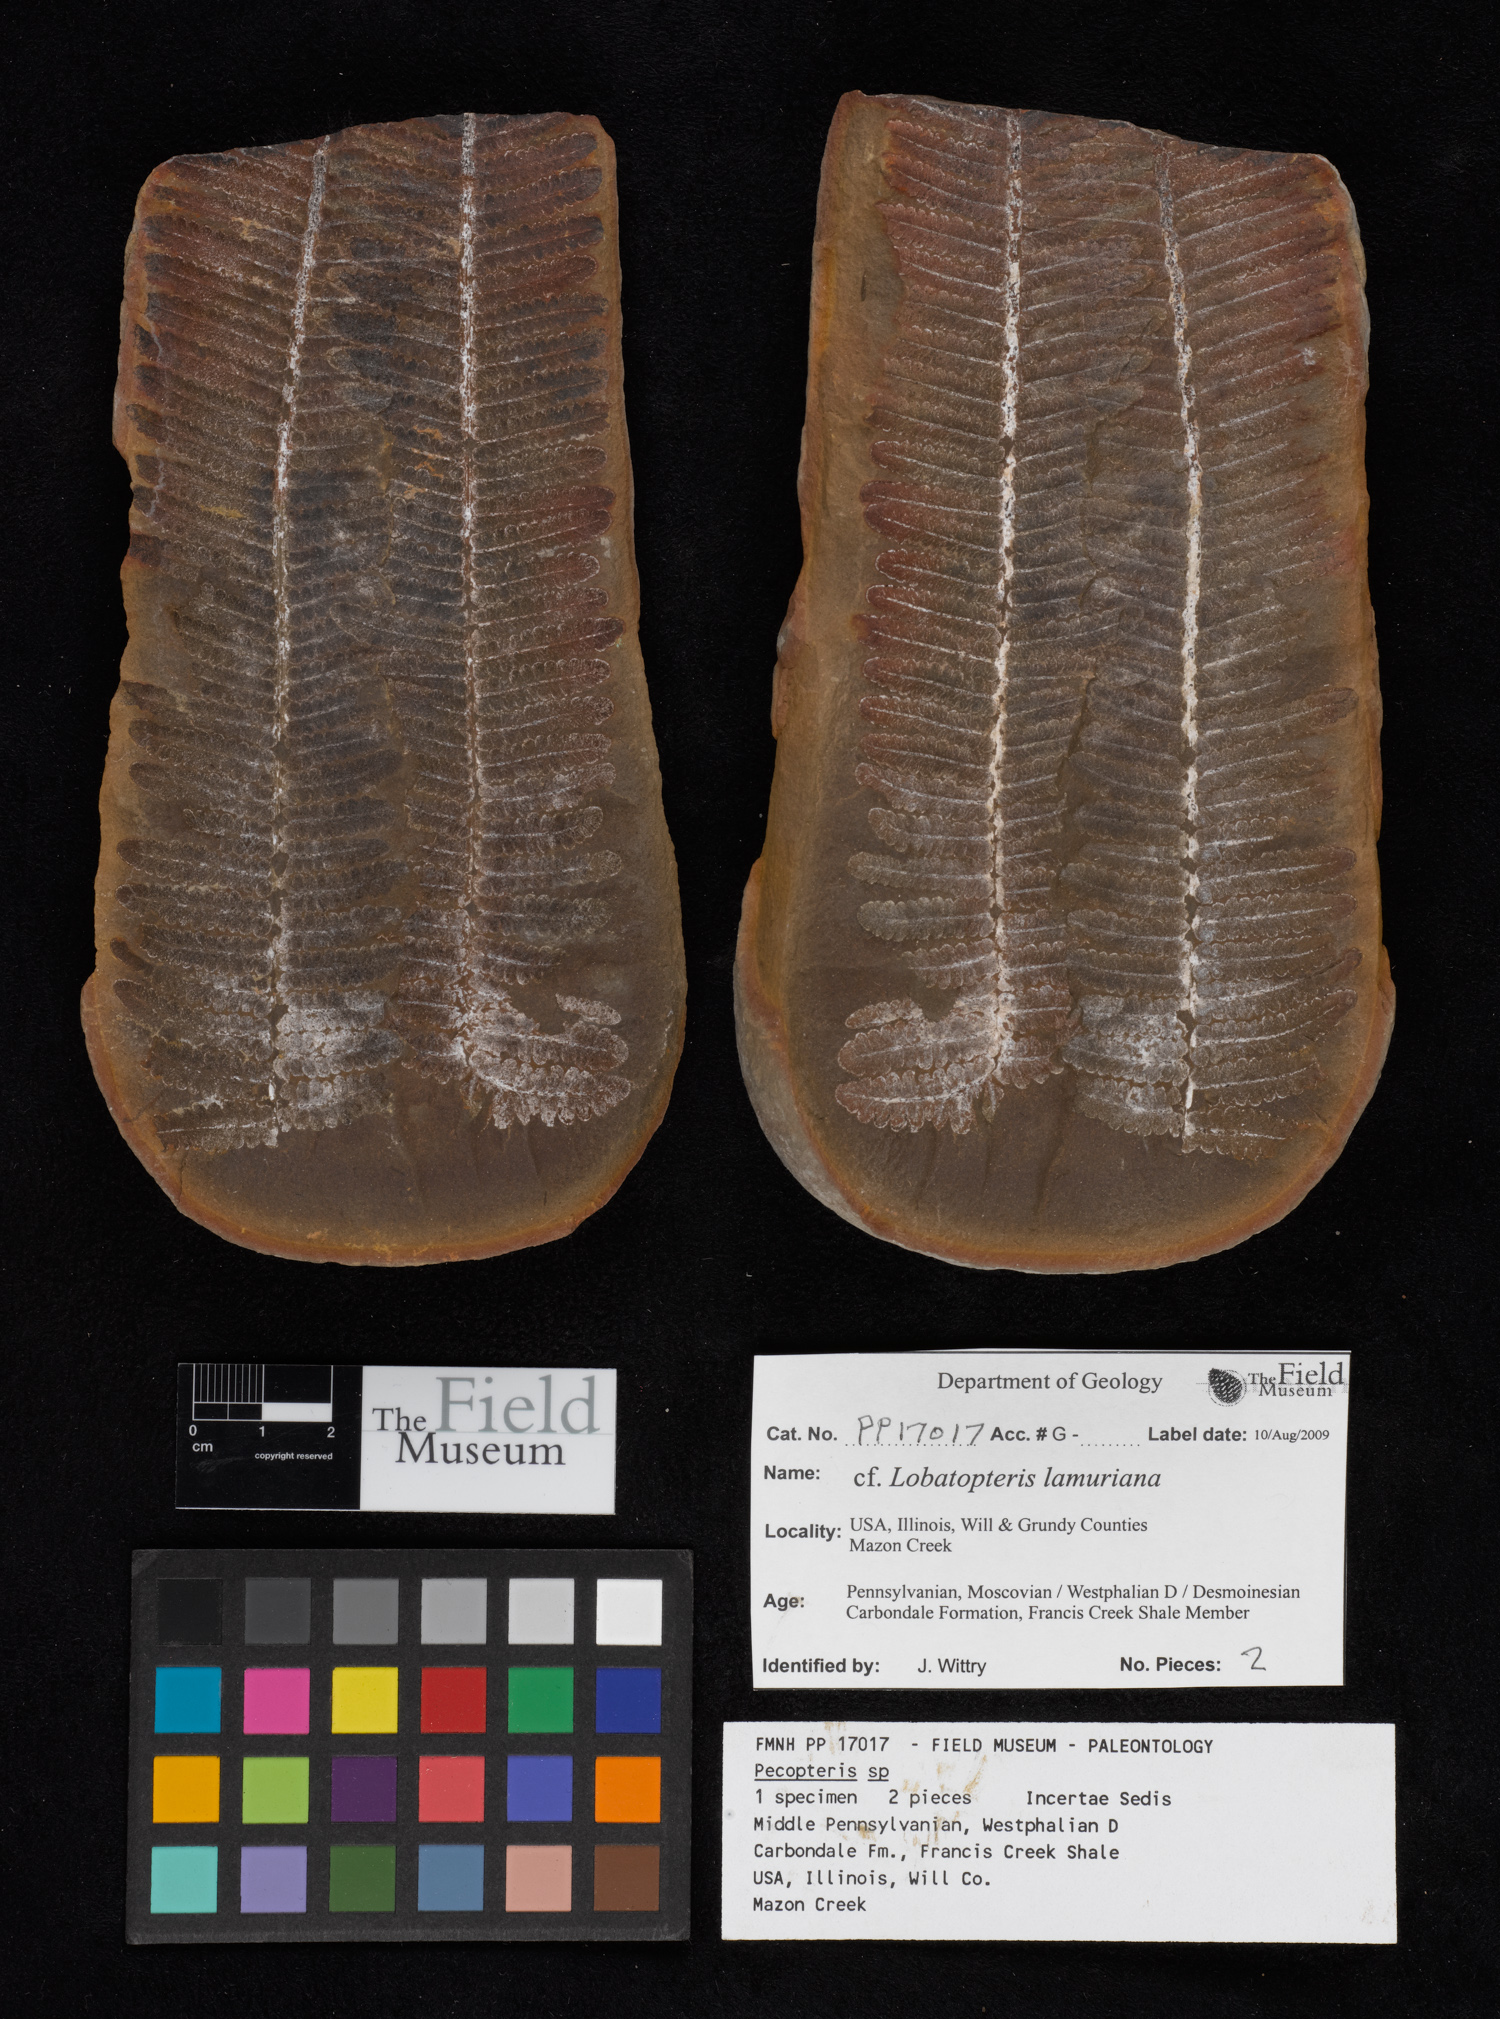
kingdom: Plantae
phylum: Tracheophyta
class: Polypodiopsida
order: Marattiales
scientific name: Marattiales
